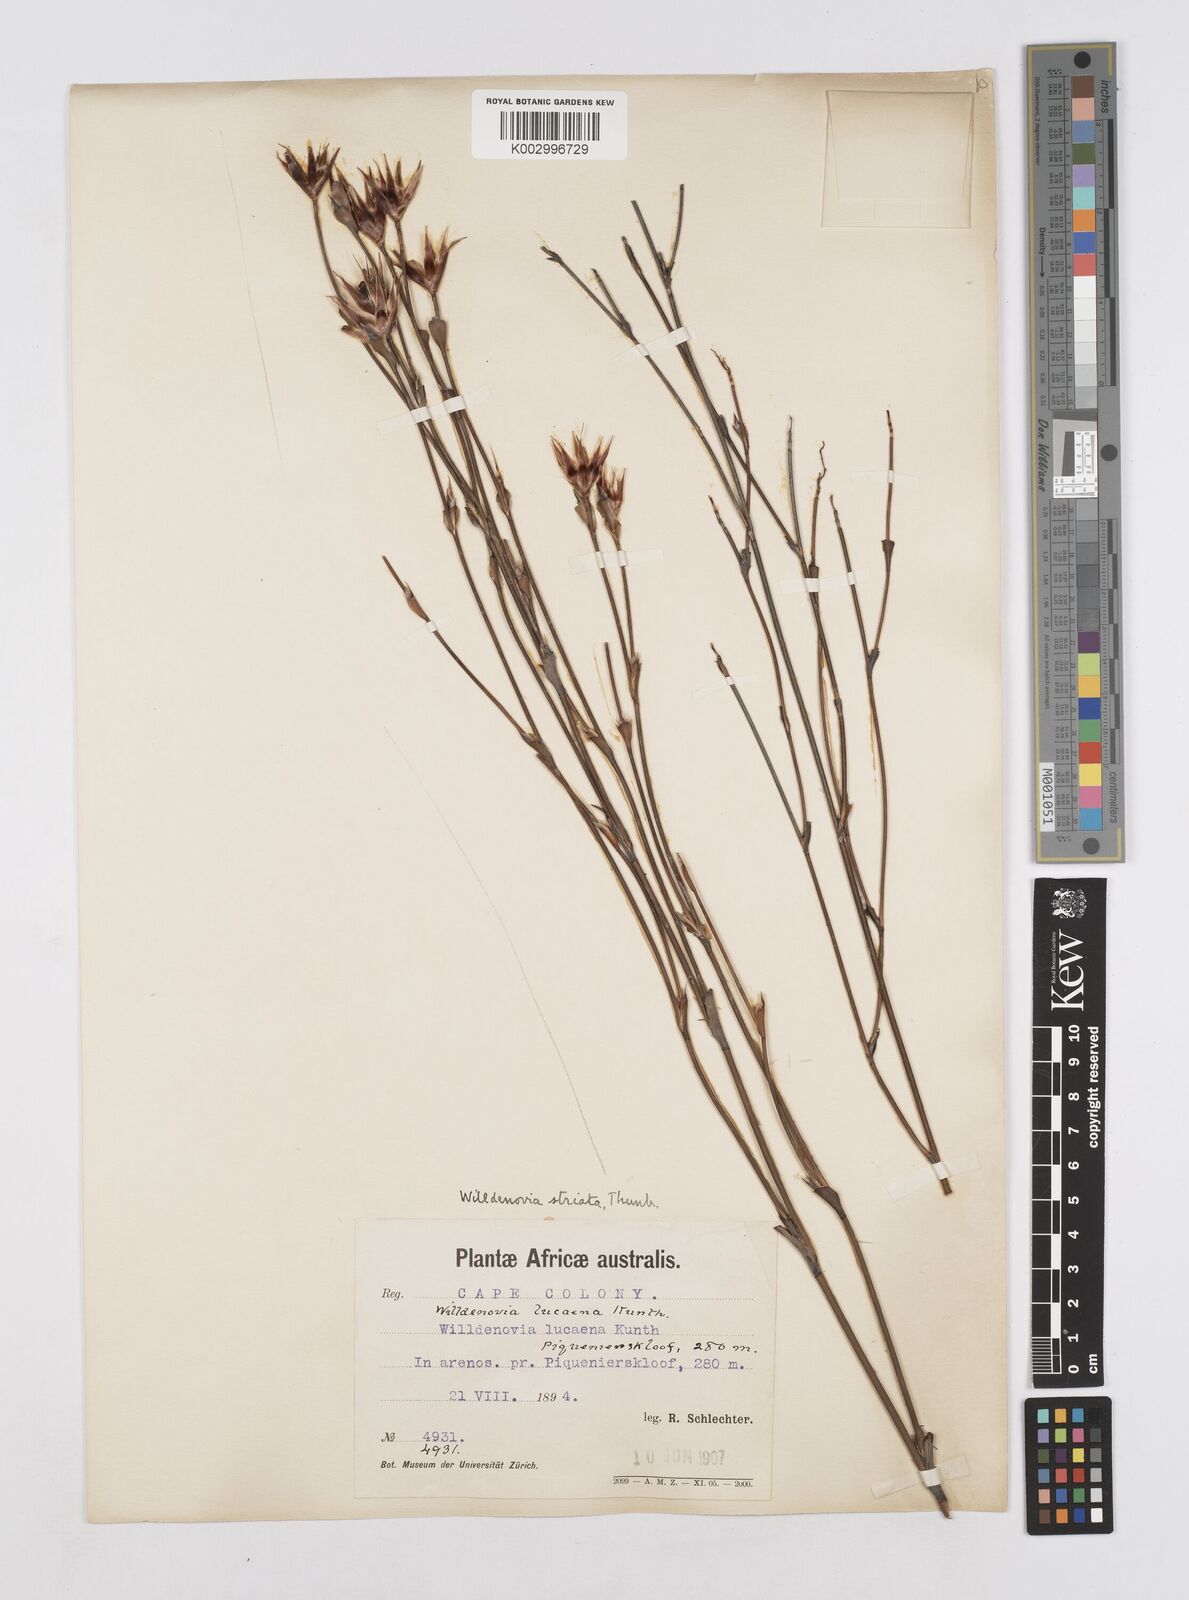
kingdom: Plantae
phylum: Tracheophyta
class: Liliopsida
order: Poales
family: Restionaceae
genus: Willdenowia
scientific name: Willdenowia incurvata
